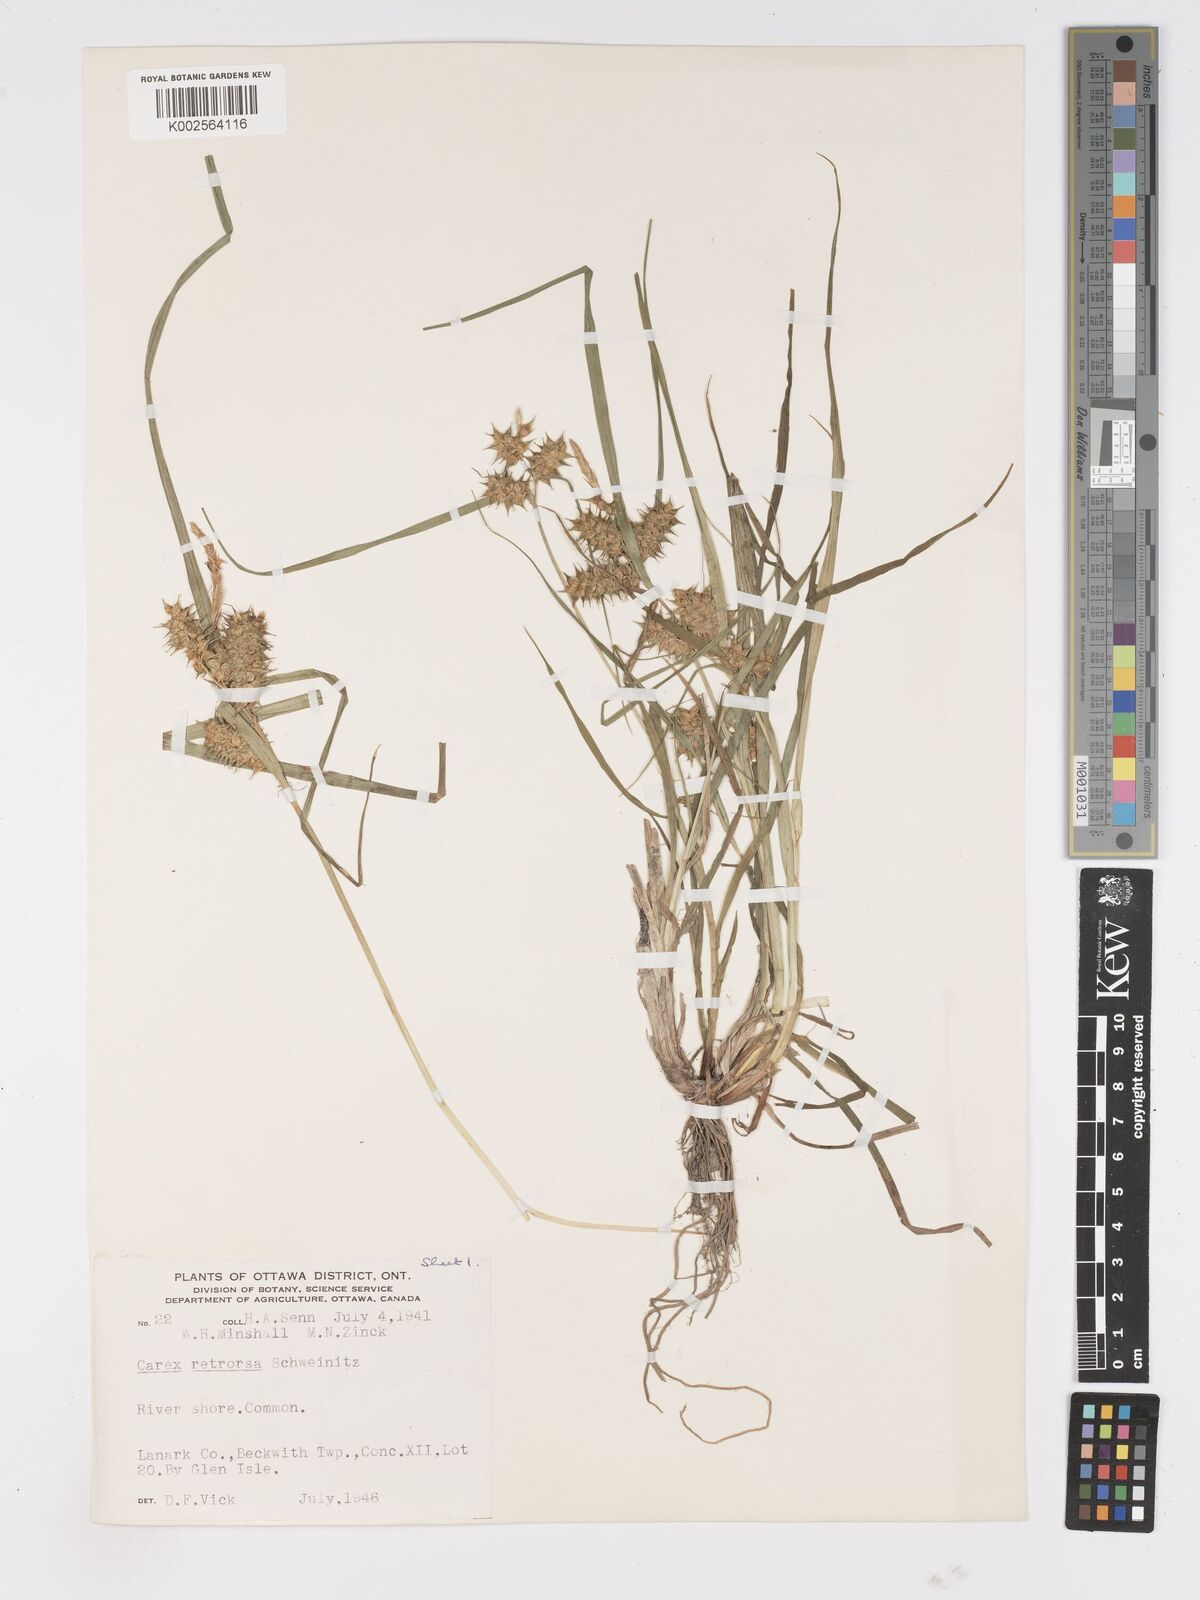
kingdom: Plantae
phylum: Tracheophyta
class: Liliopsida
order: Poales
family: Cyperaceae
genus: Carex
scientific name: Carex retrorsa
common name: Knot-sheath sedge
